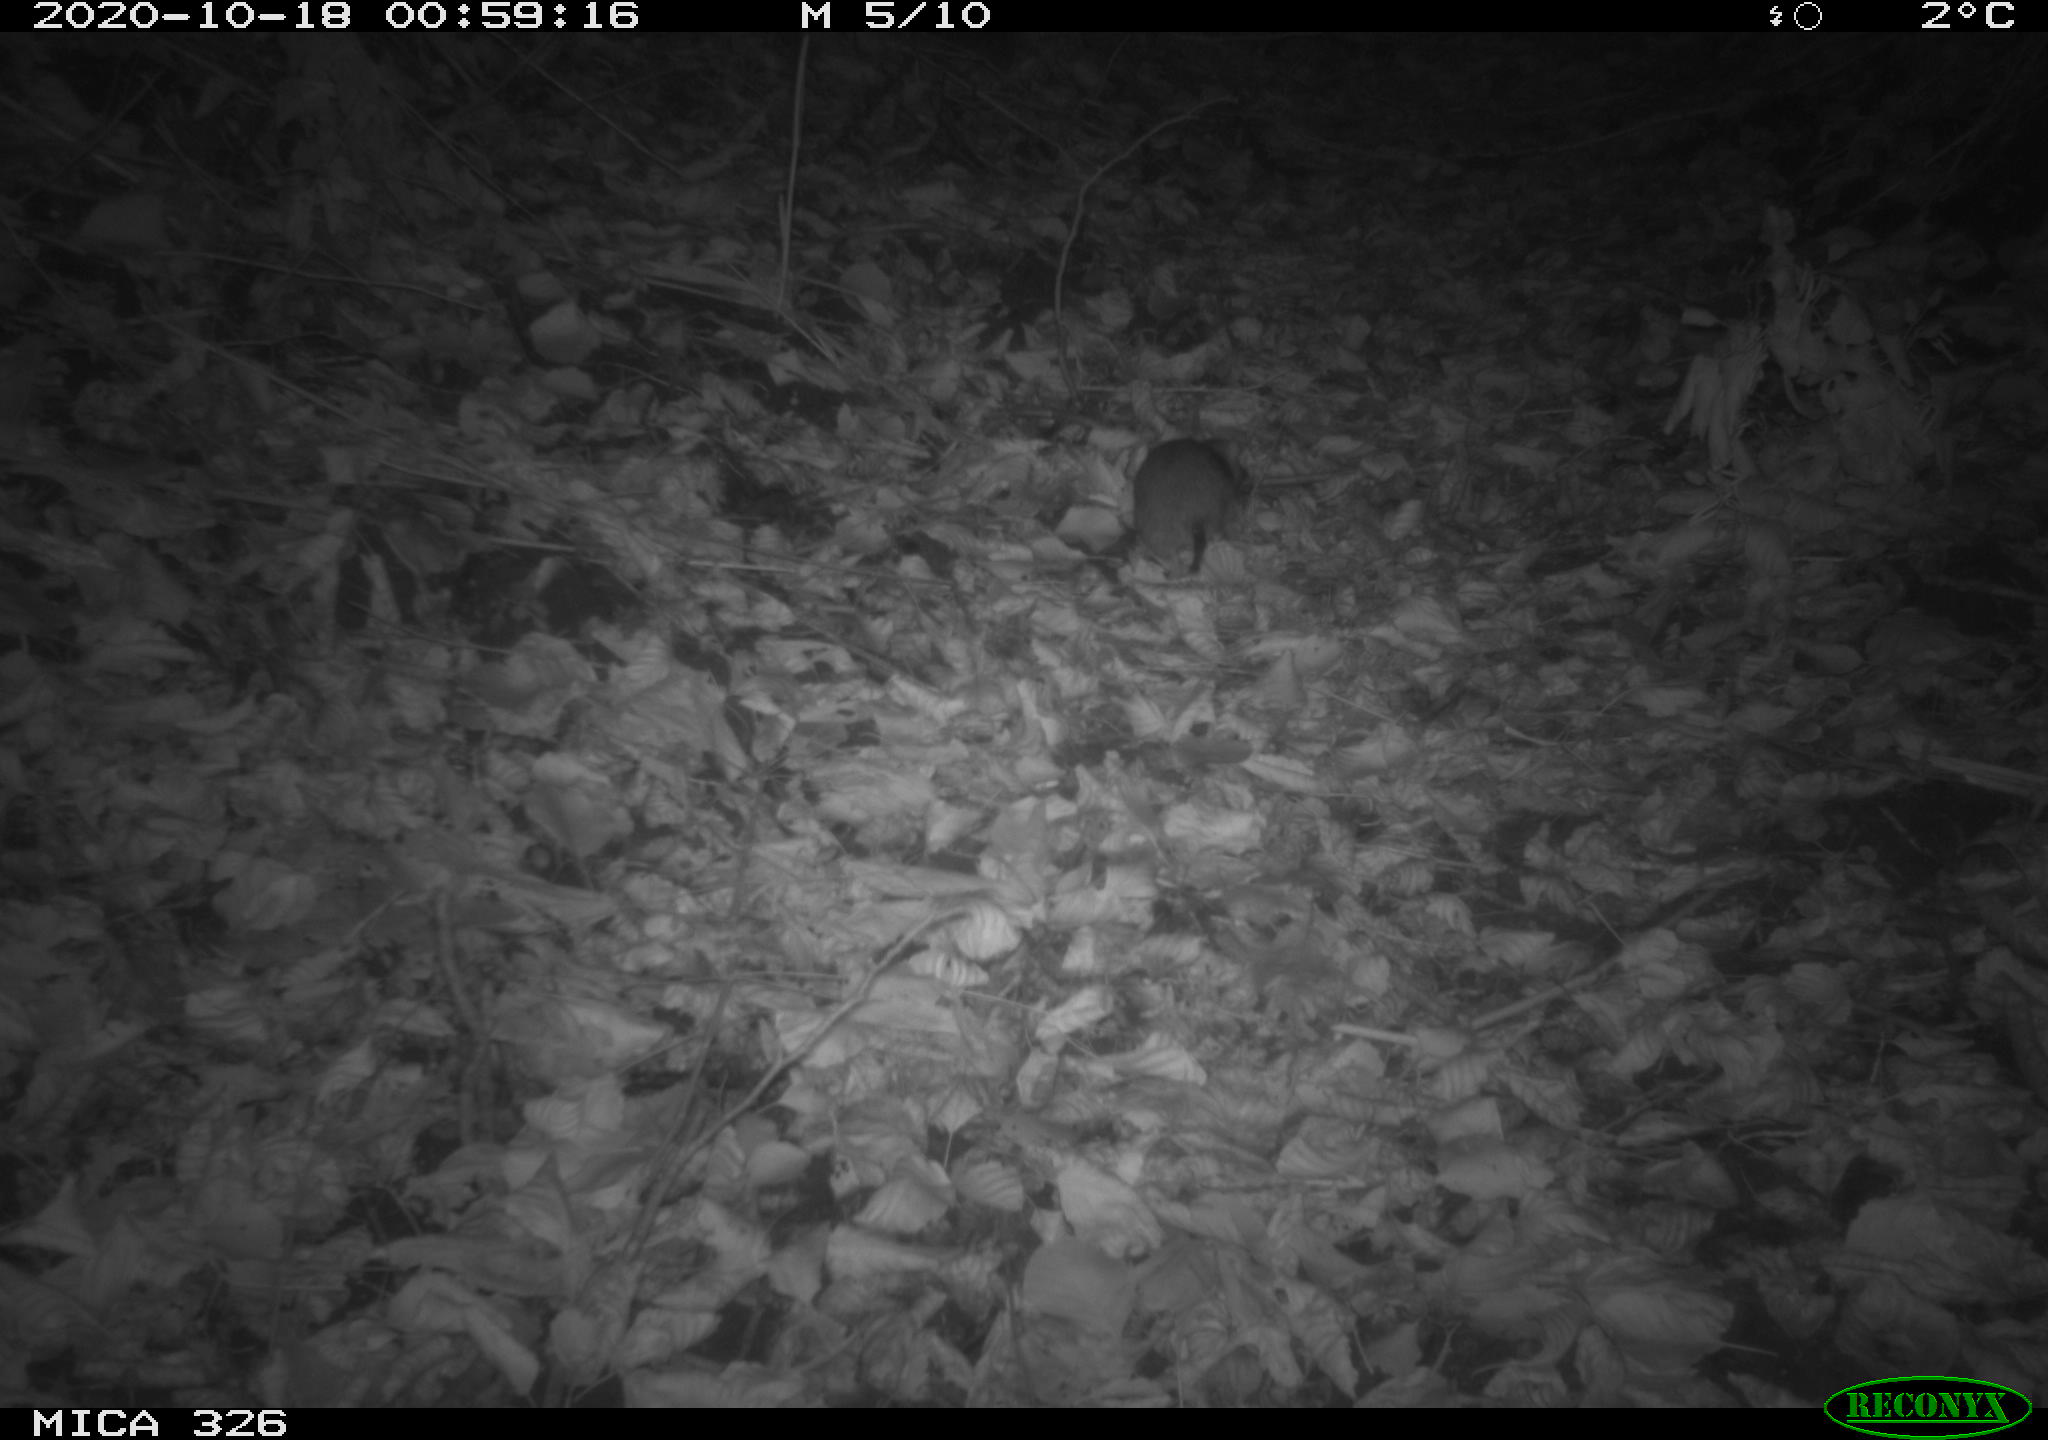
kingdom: Animalia
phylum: Chordata
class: Mammalia
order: Rodentia
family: Muridae
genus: Rattus
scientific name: Rattus norvegicus
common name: Brown rat
